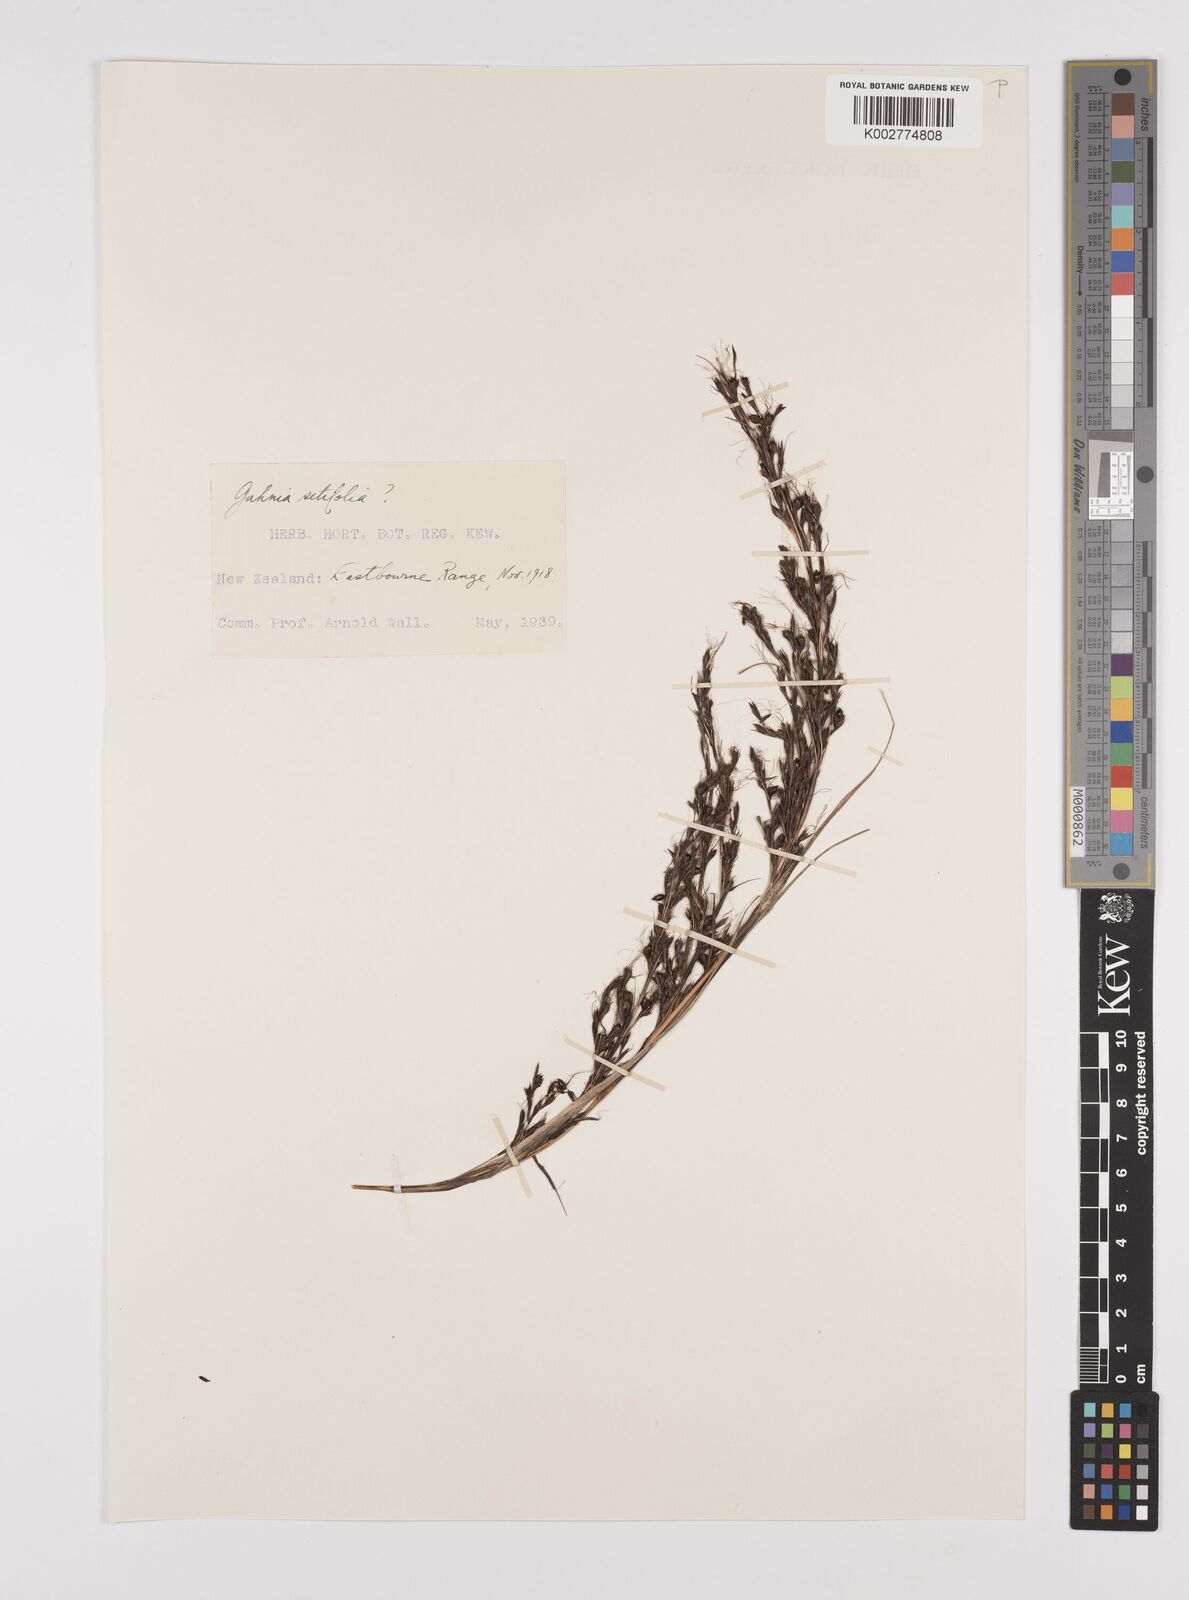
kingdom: Plantae
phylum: Tracheophyta
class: Liliopsida
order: Poales
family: Cyperaceae
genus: Gahnia
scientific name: Gahnia setifolia
